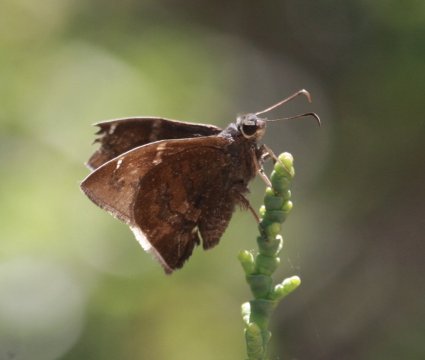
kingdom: Animalia
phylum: Arthropoda
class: Insecta
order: Lepidoptera
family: Hesperiidae
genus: Thorybes
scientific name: Thorybes
